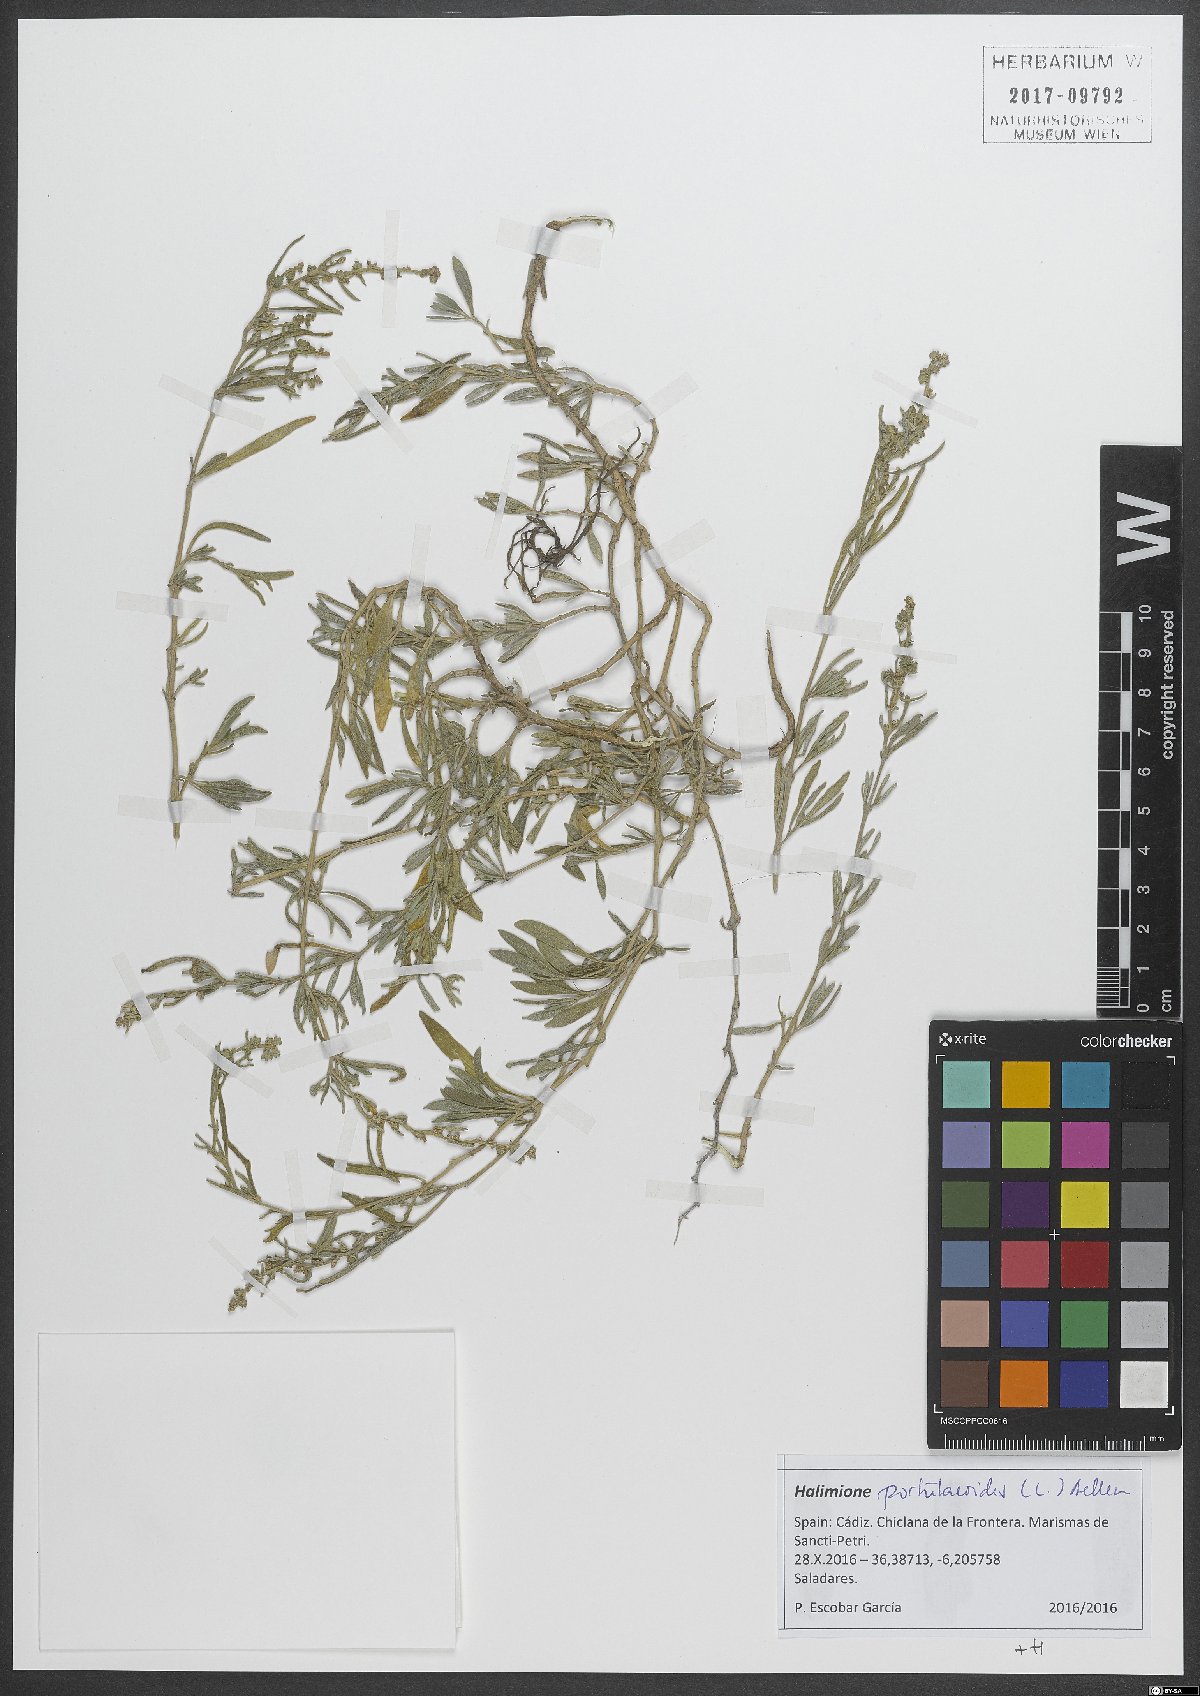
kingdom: Plantae
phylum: Tracheophyta
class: Magnoliopsida
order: Caryophyllales
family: Amaranthaceae
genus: Halimione
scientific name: Halimione portulacoides
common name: Sea-purslane
